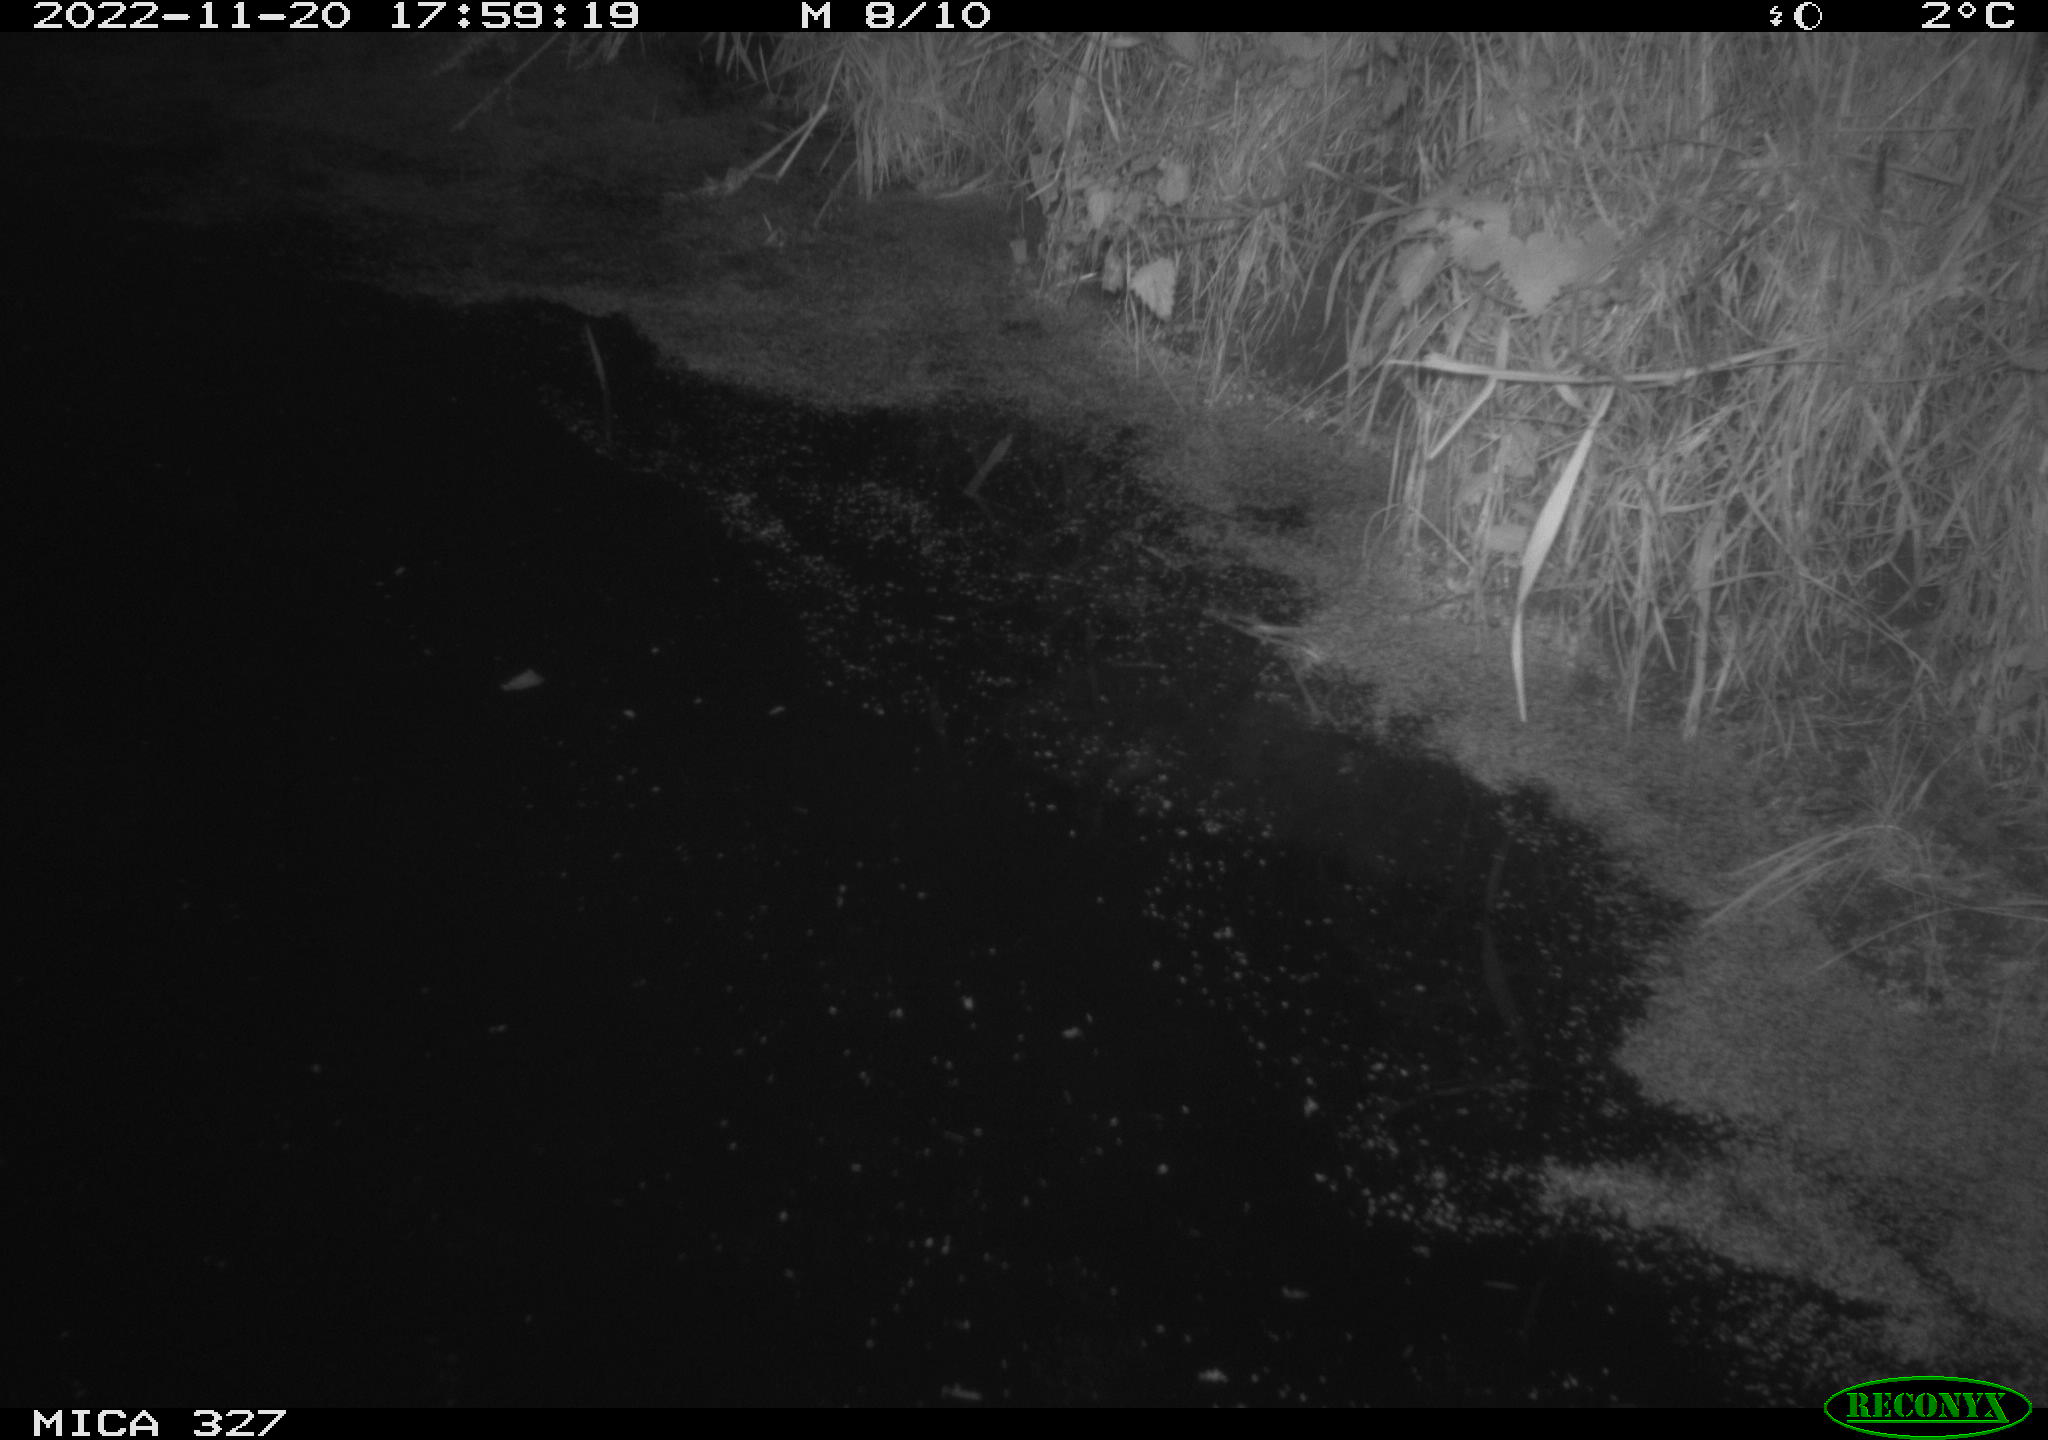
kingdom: Animalia
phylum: Chordata
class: Aves
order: Gruiformes
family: Rallidae
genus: Gallinula
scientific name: Gallinula chloropus
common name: Common moorhen
